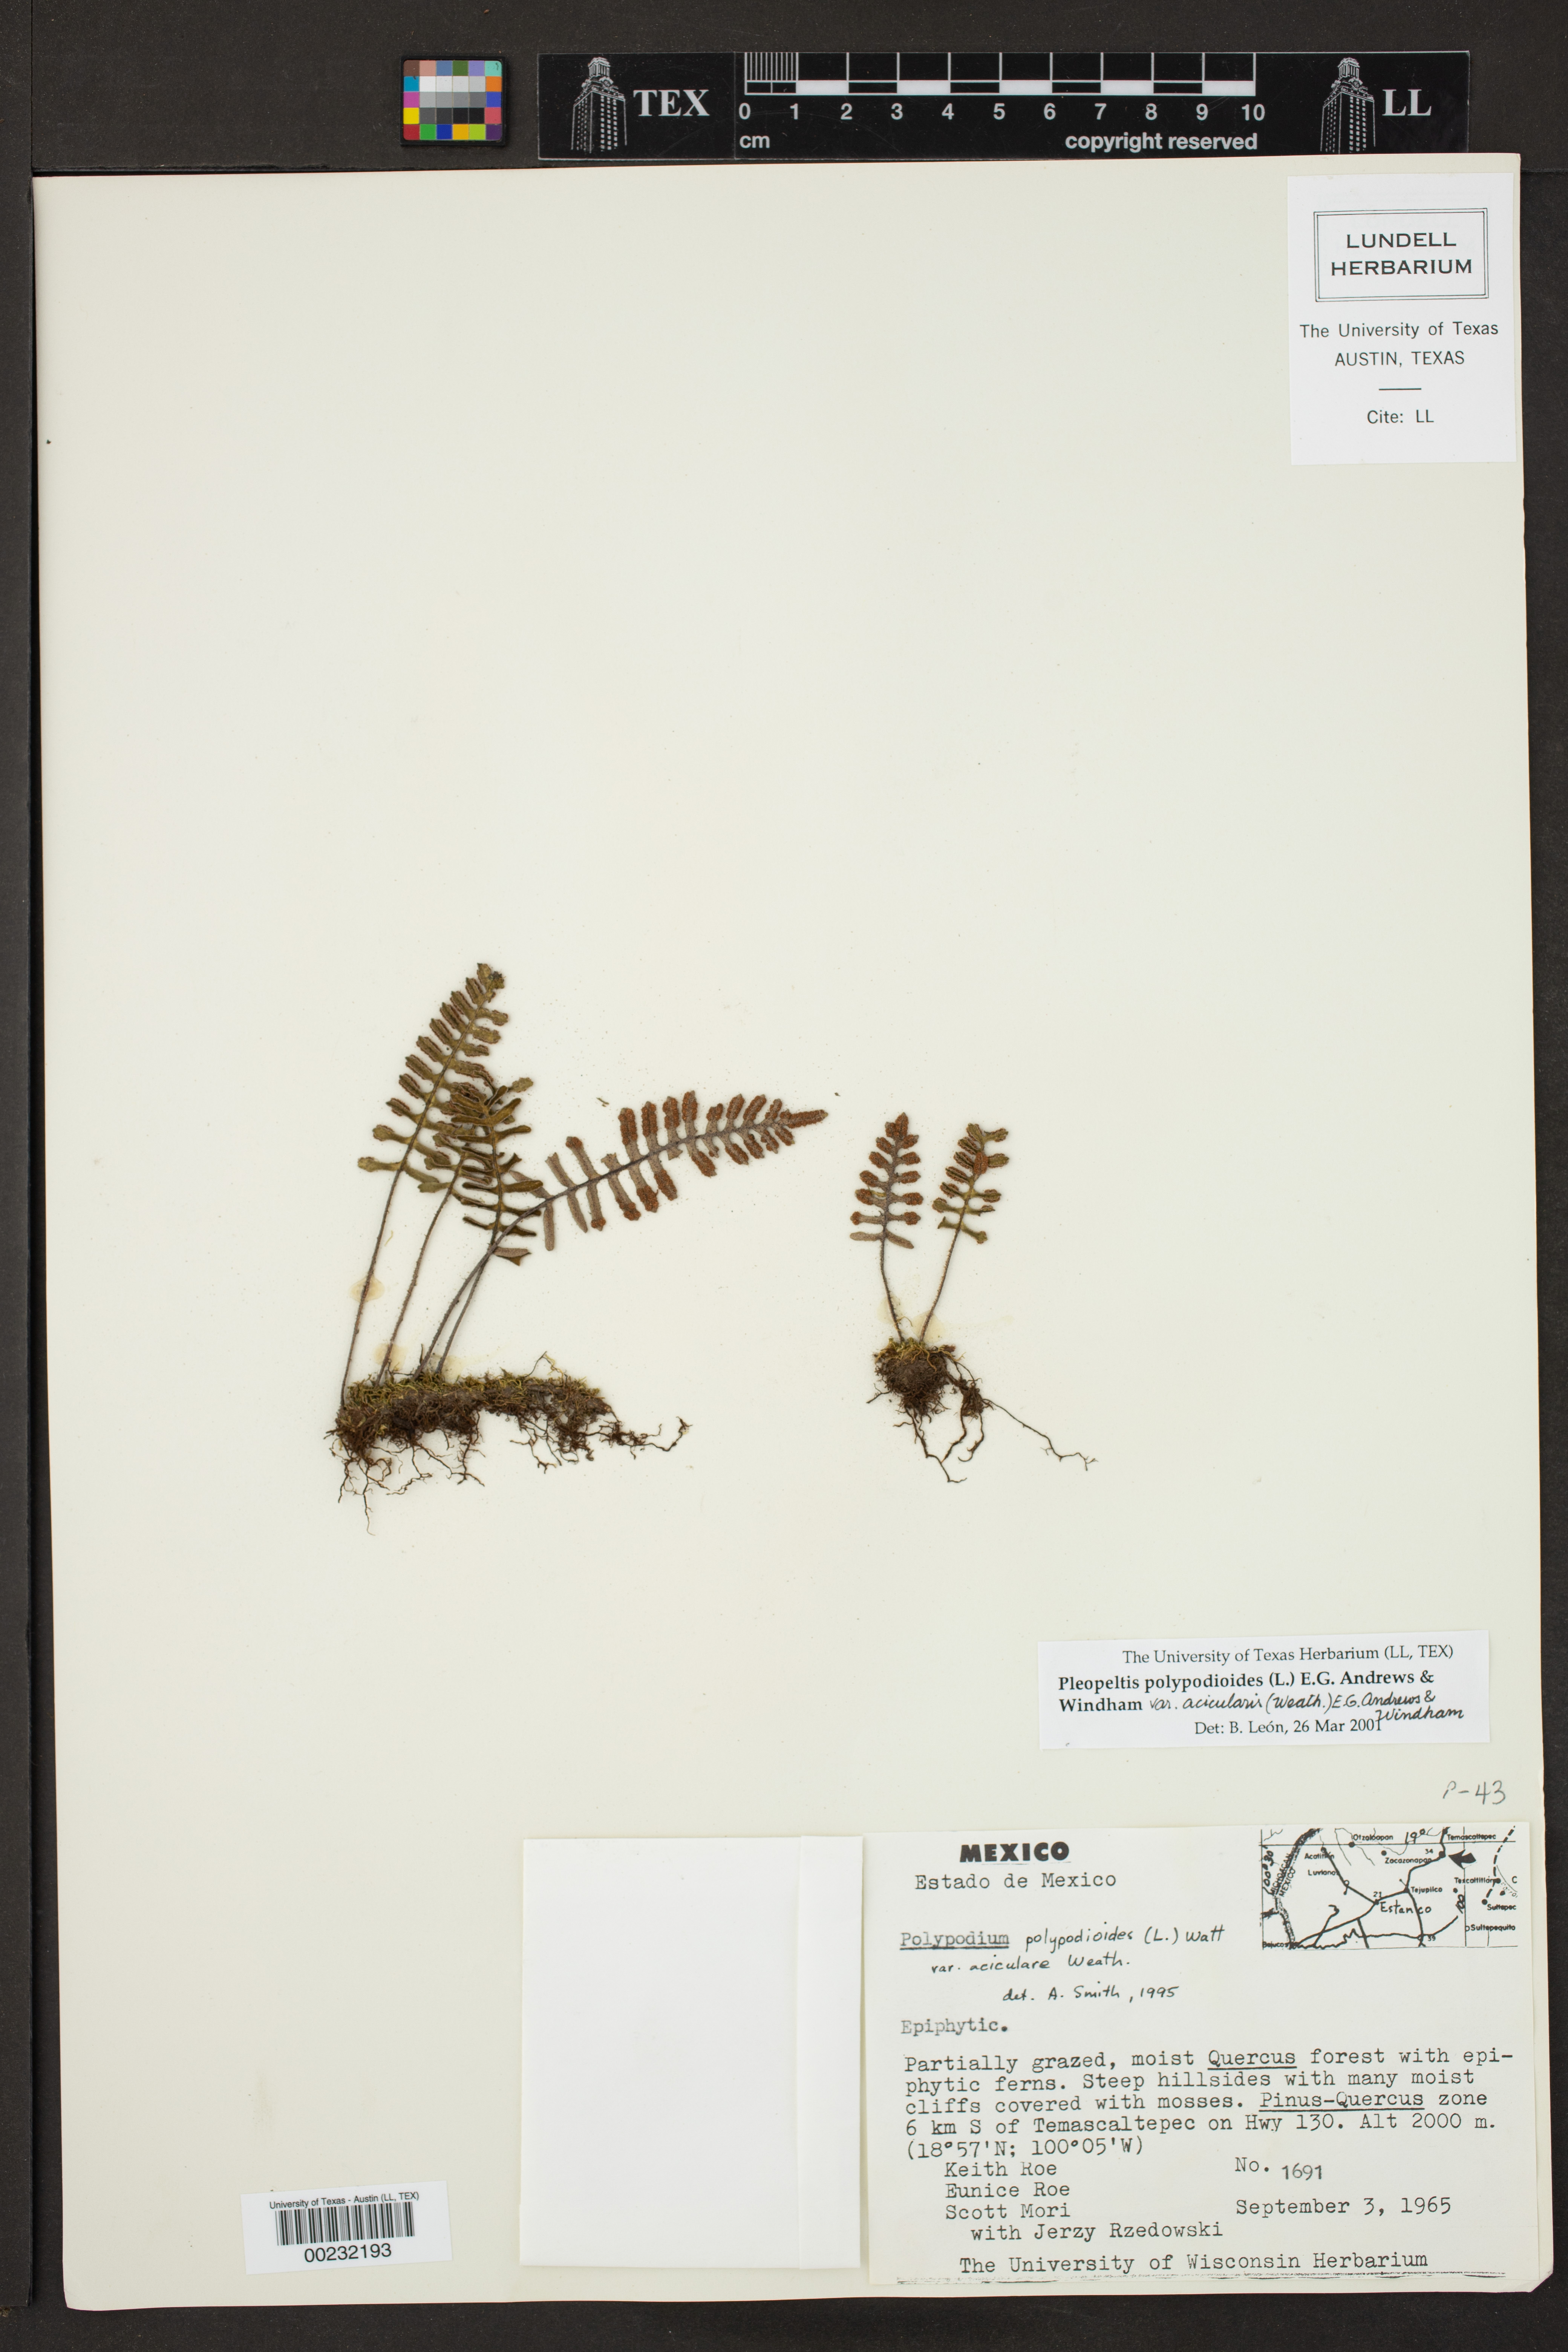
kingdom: Plantae
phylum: Tracheophyta
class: Polypodiopsida
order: Polypodiales
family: Polypodiaceae
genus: Pleopeltis
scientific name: Pleopeltis acicularis
